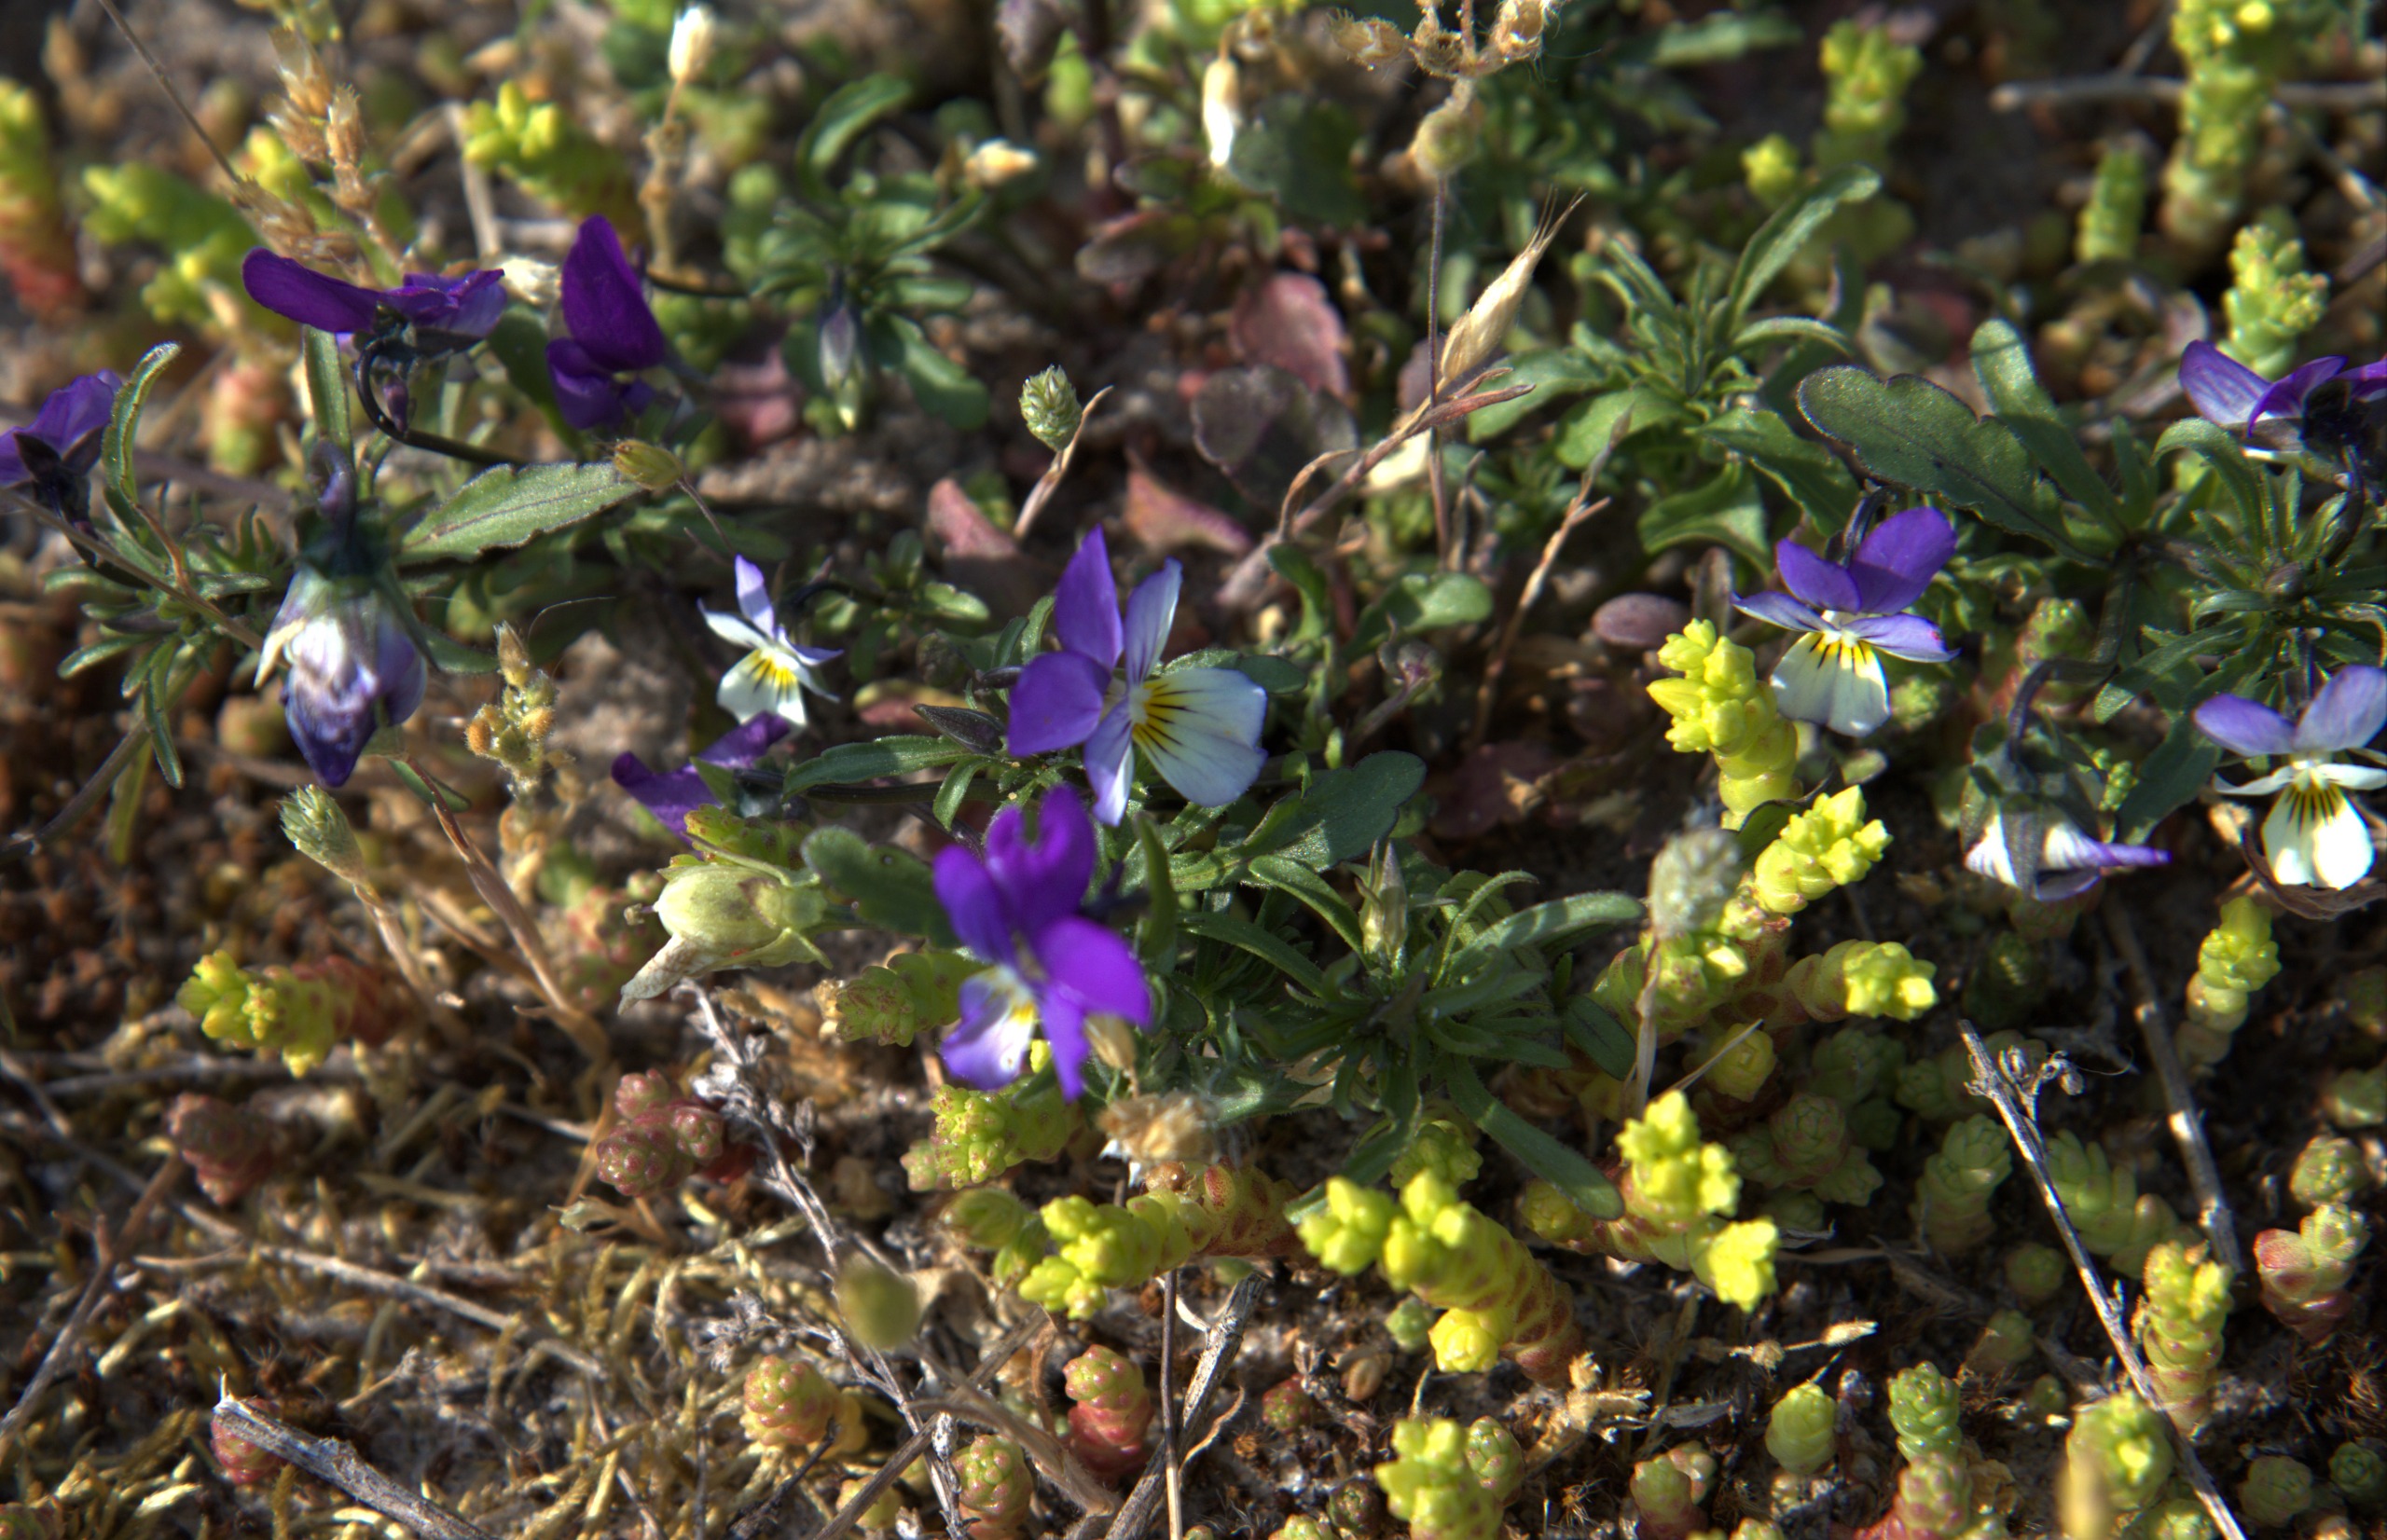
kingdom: Plantae
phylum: Tracheophyta
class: Magnoliopsida
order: Malpighiales
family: Violaceae
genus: Viola
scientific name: Viola tricolor
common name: Stedmoderblomst
